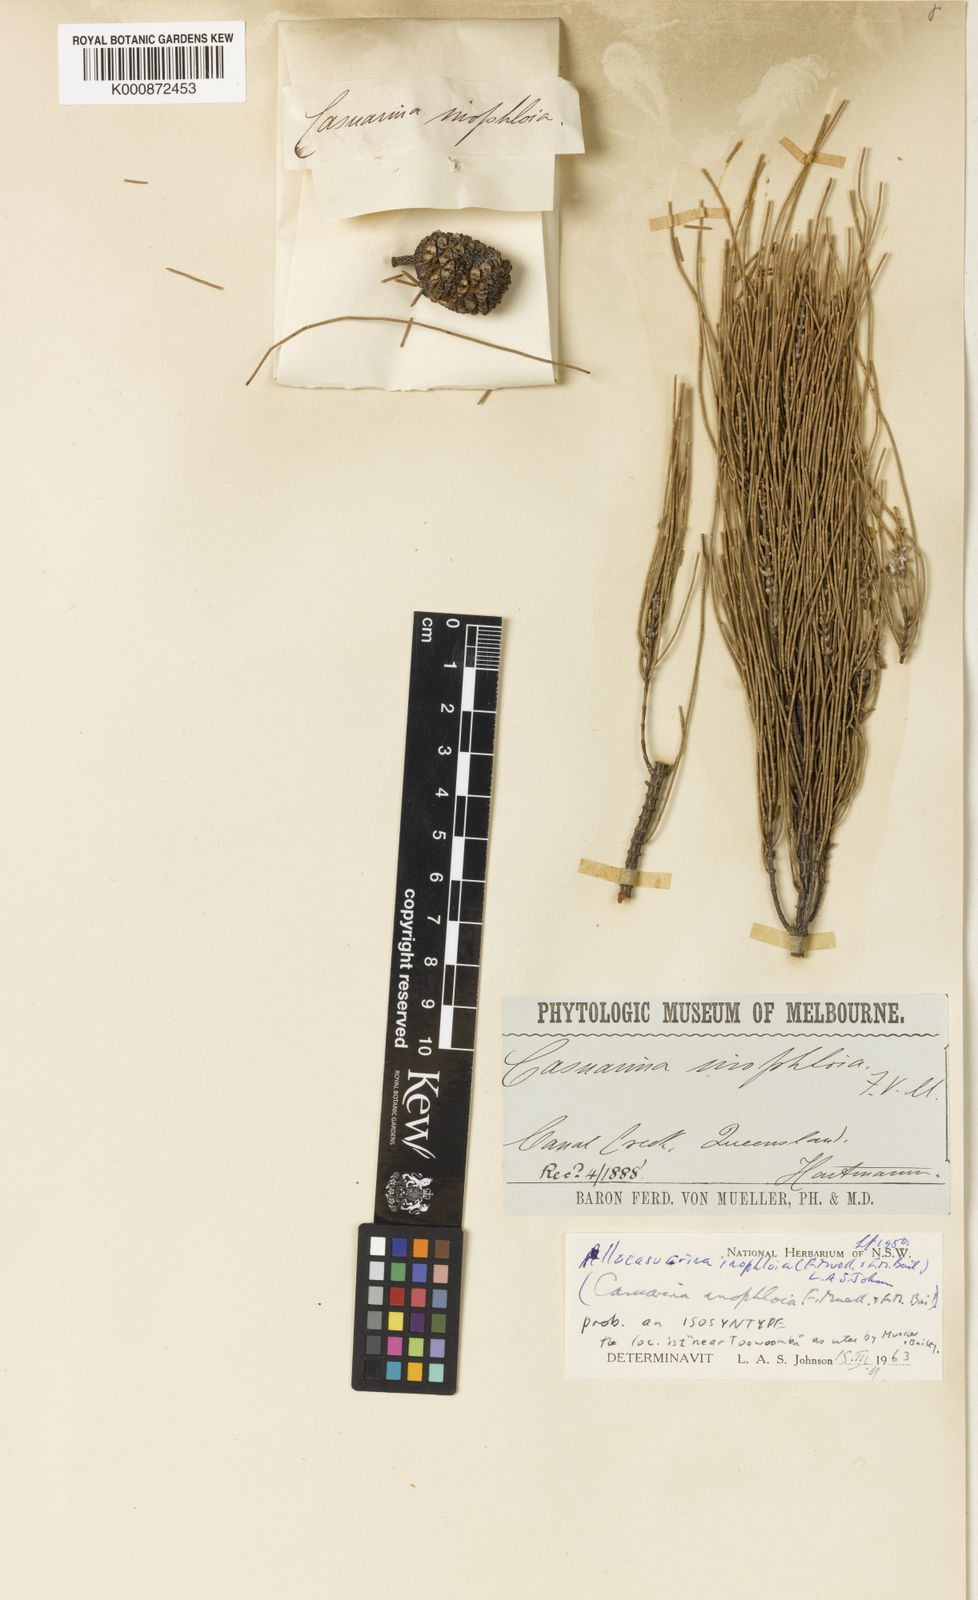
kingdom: Plantae
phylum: Tracheophyta
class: Magnoliopsida
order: Fagales
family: Casuarinaceae
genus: Allocasuarina
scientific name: Allocasuarina inophloia
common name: Stringybark she-oak
